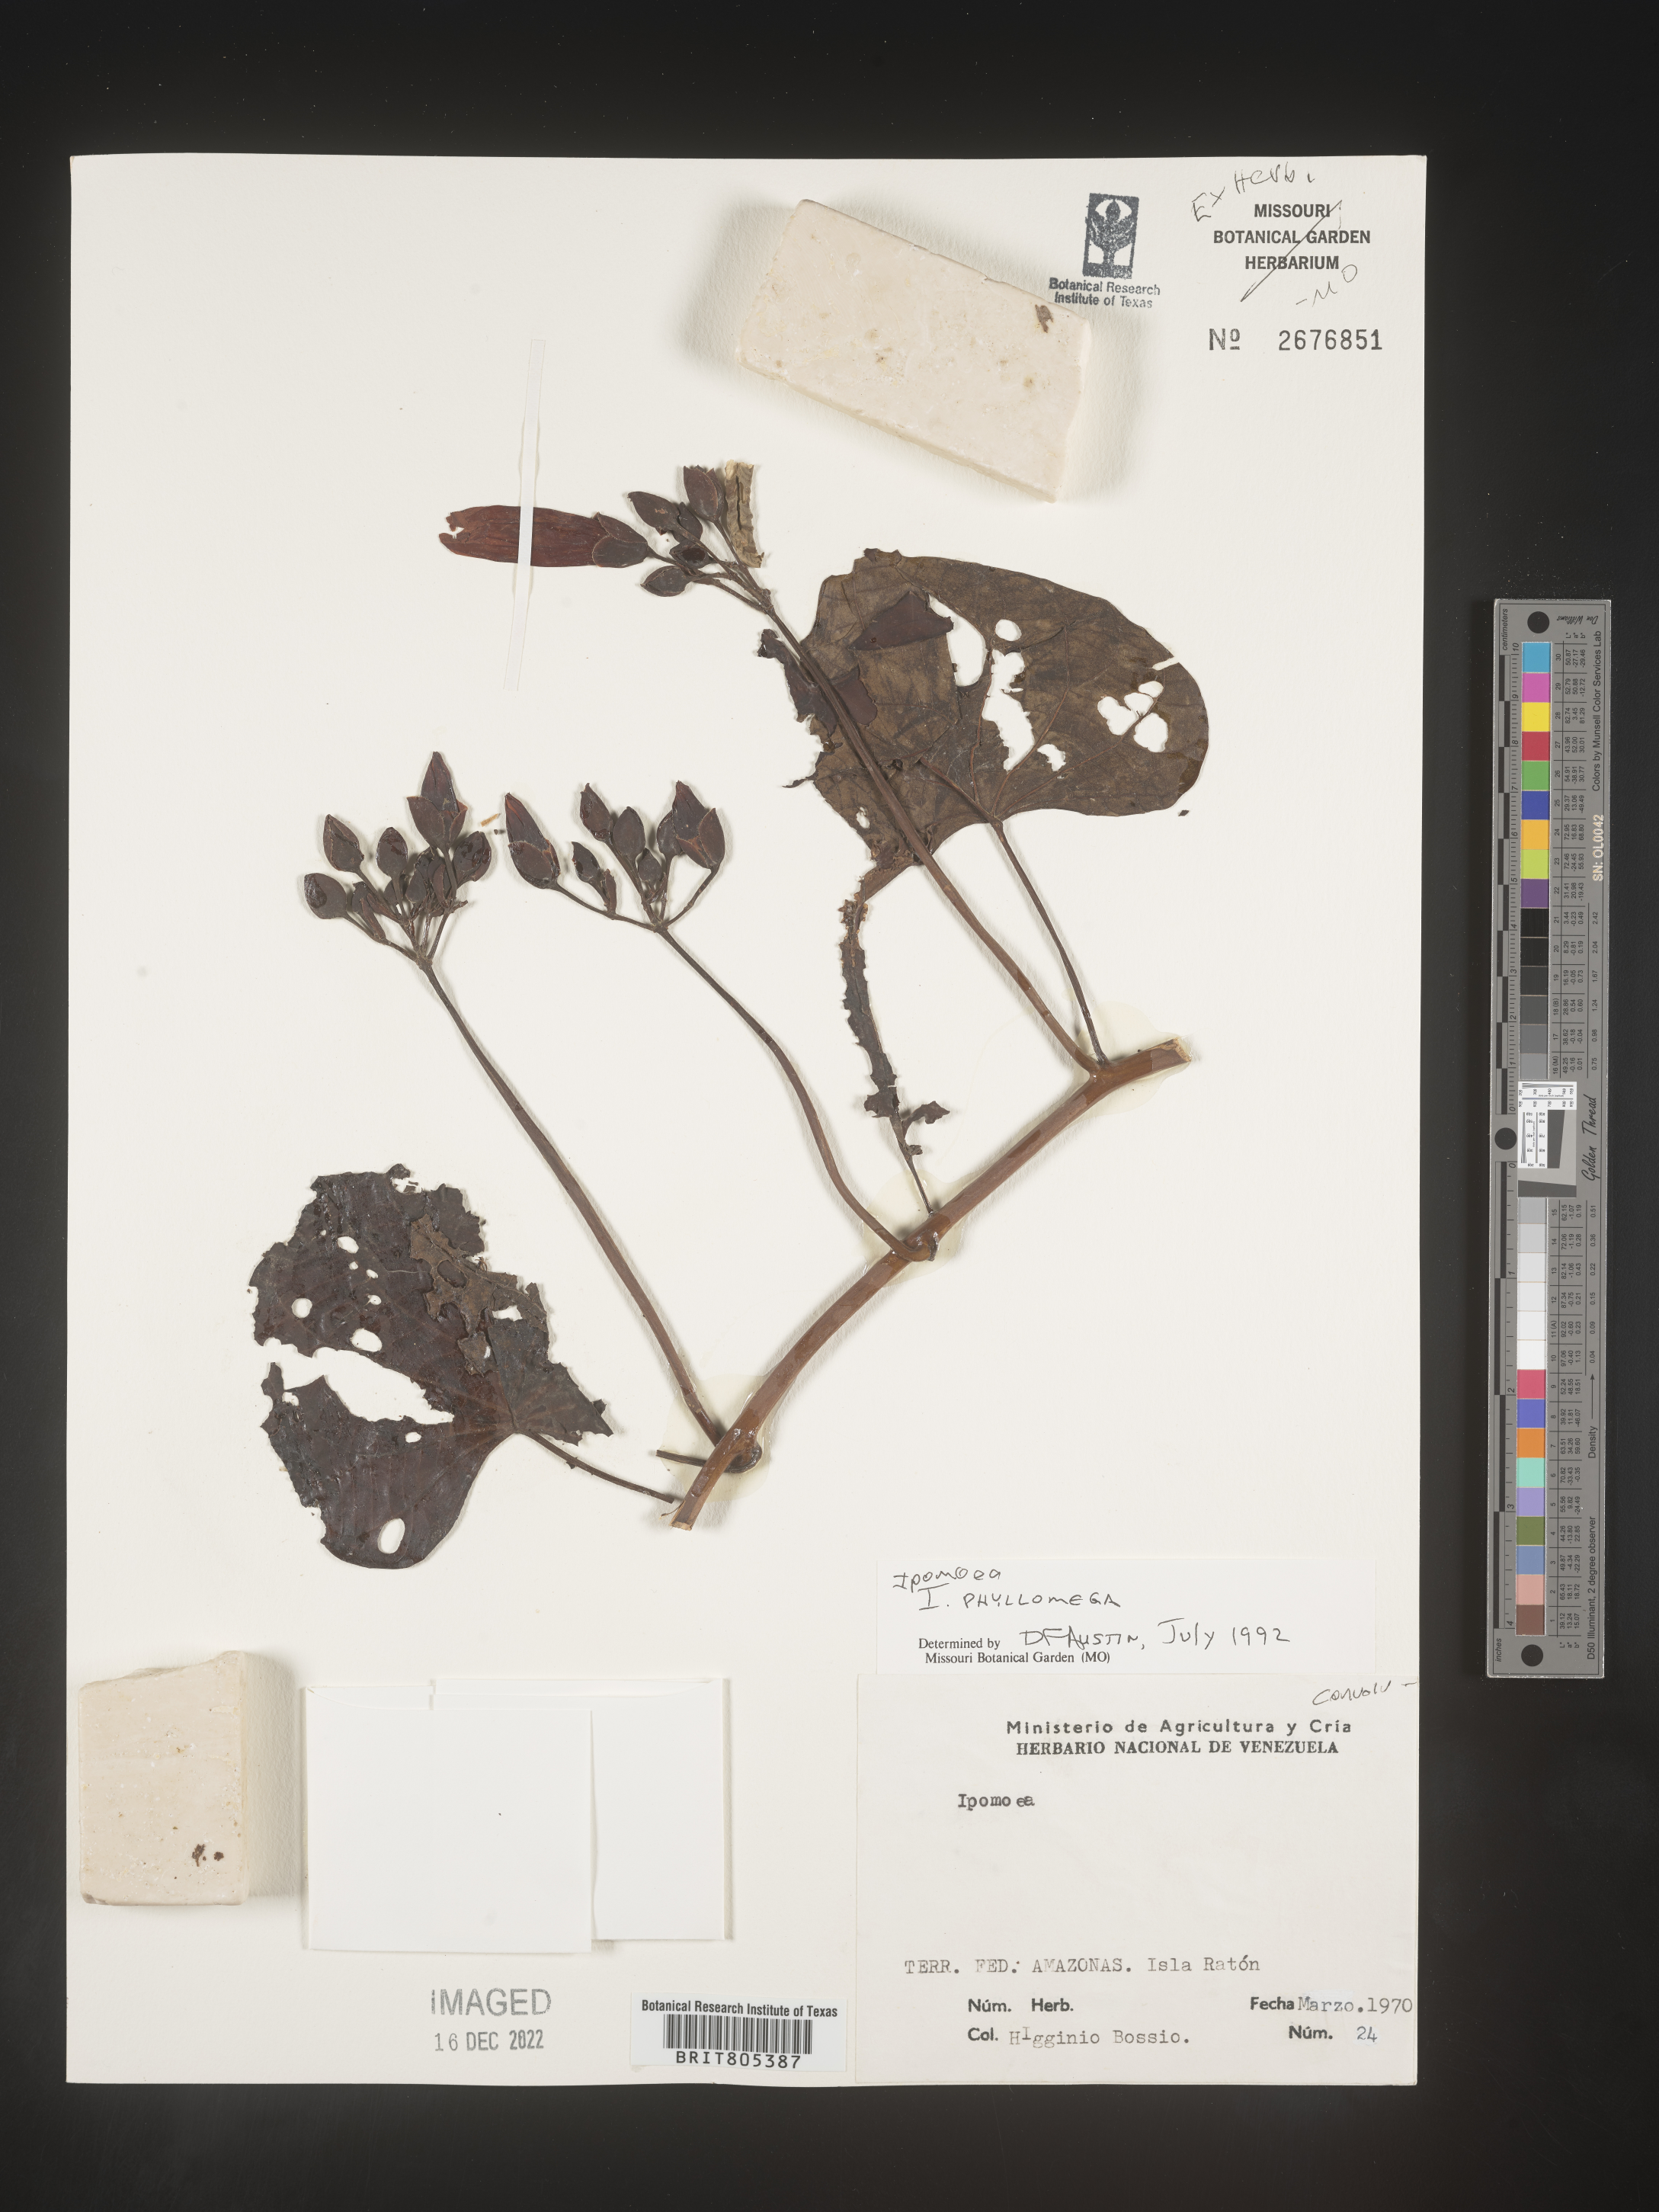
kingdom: Plantae
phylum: Tracheophyta
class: Magnoliopsida
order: Solanales
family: Convolvulaceae
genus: Ipomoea
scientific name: Ipomoea
